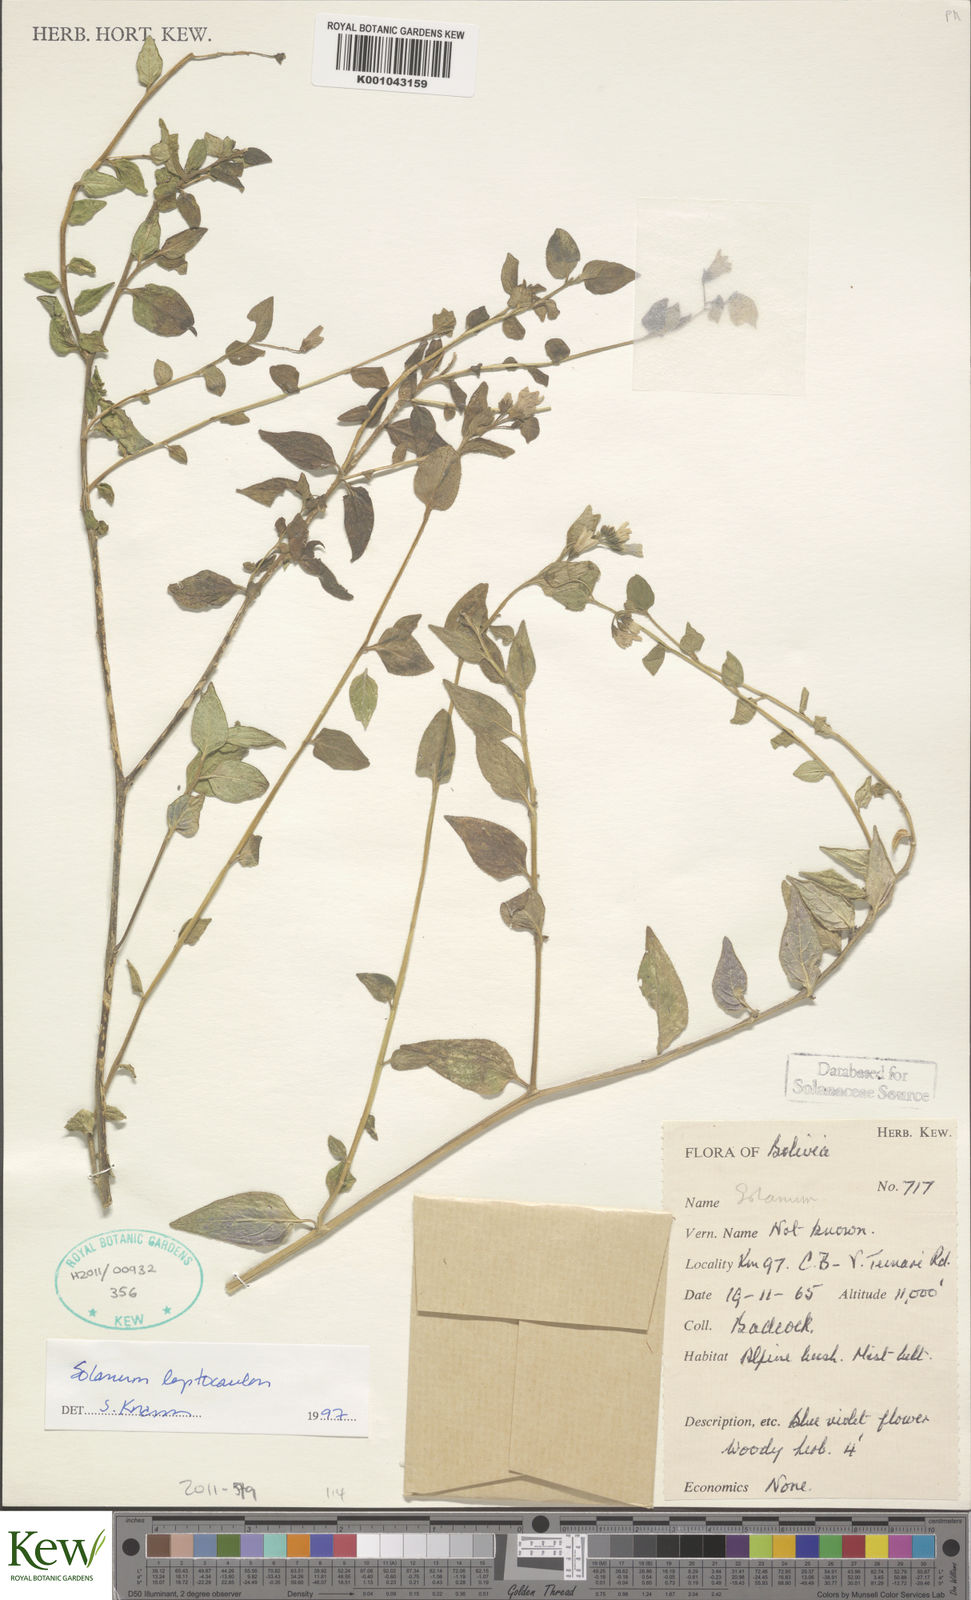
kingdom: Plantae
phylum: Tracheophyta
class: Magnoliopsida
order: Solanales
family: Solanaceae
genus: Solanum
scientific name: Solanum
